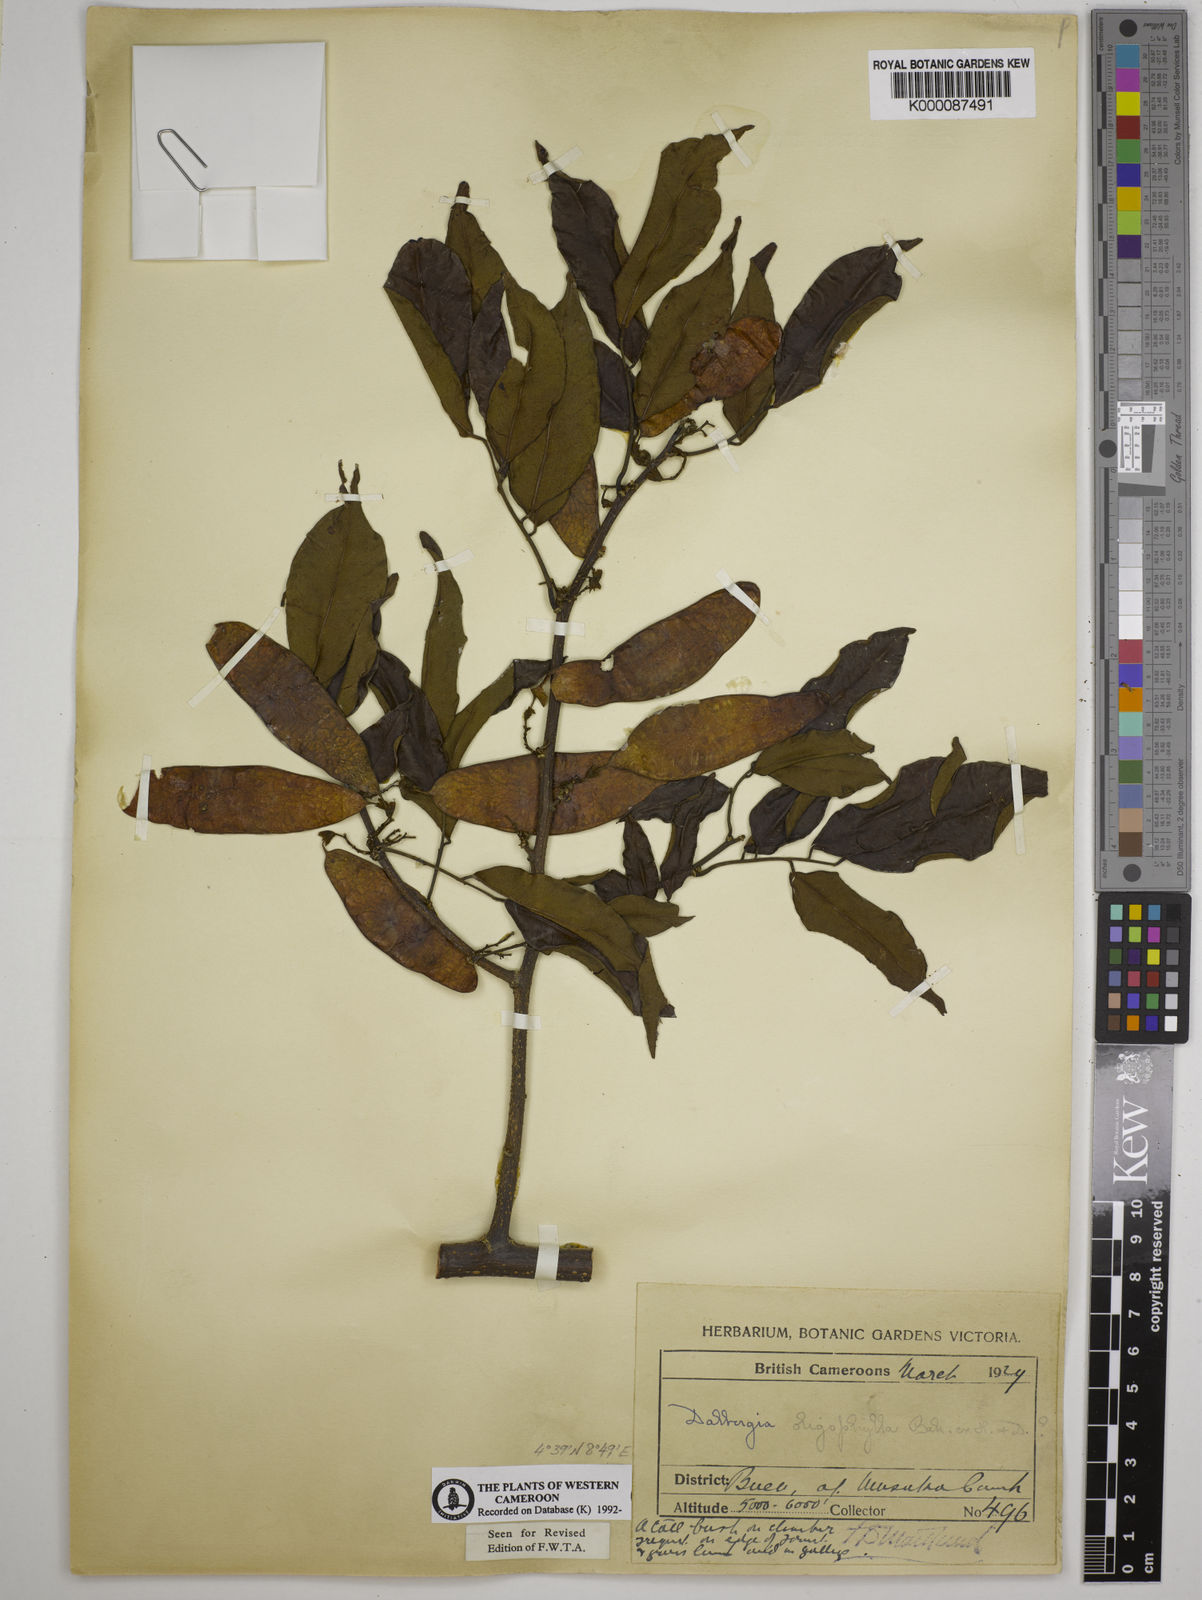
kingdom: Plantae
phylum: Tracheophyta
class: Magnoliopsida
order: Fabales
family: Fabaceae
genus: Dalbergia
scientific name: Dalbergia oligophylla
